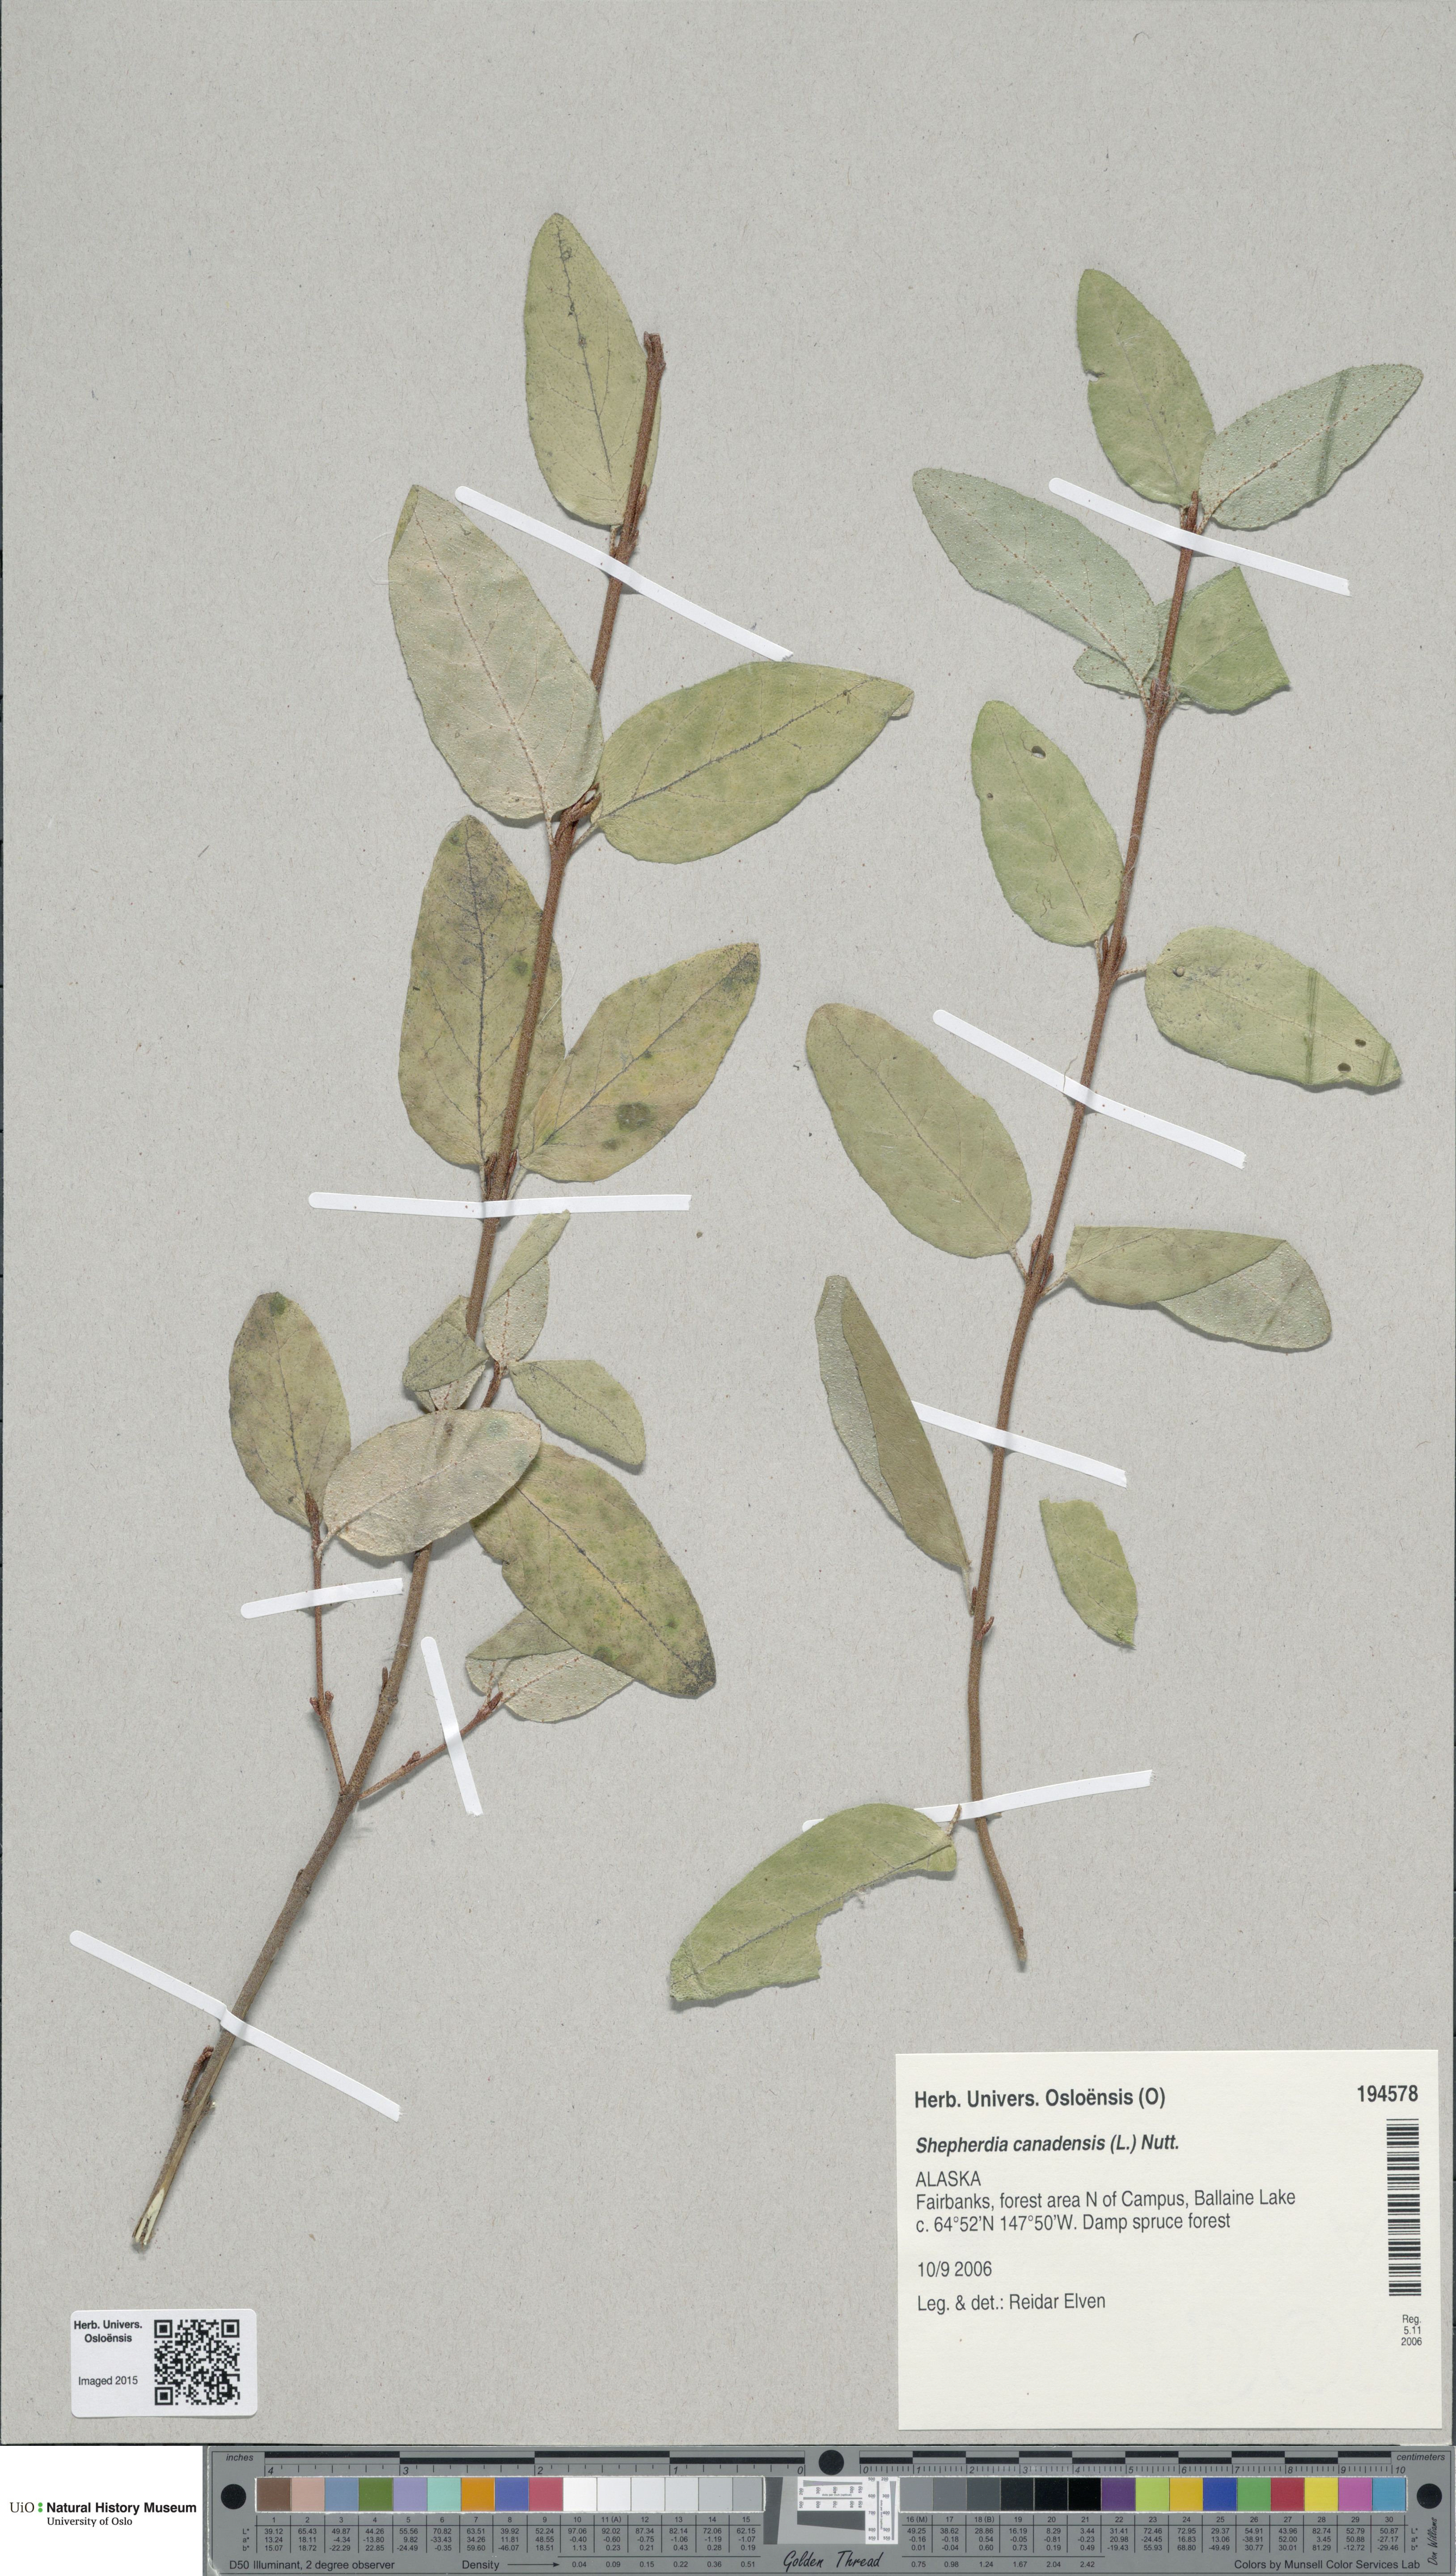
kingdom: Plantae
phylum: Tracheophyta
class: Magnoliopsida
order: Rosales
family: Elaeagnaceae
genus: Shepherdia
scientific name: Shepherdia canadensis
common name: Soapberry
